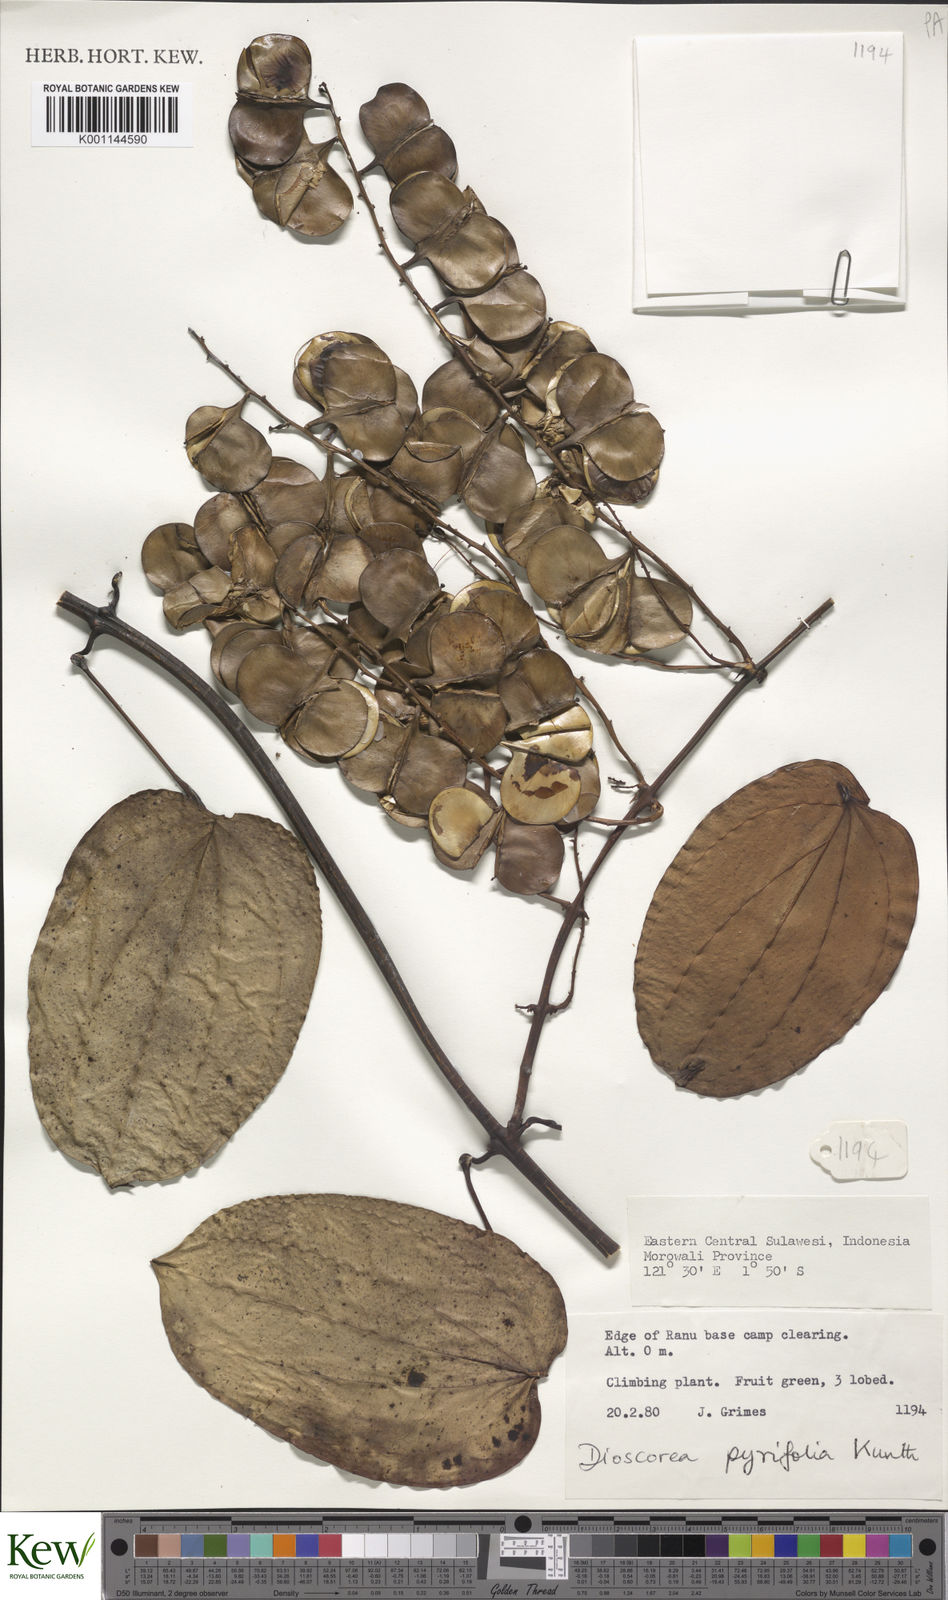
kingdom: Plantae
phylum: Tracheophyta
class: Liliopsida
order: Dioscoreales
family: Dioscoreaceae
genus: Dioscorea
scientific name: Dioscorea pyrifolia
